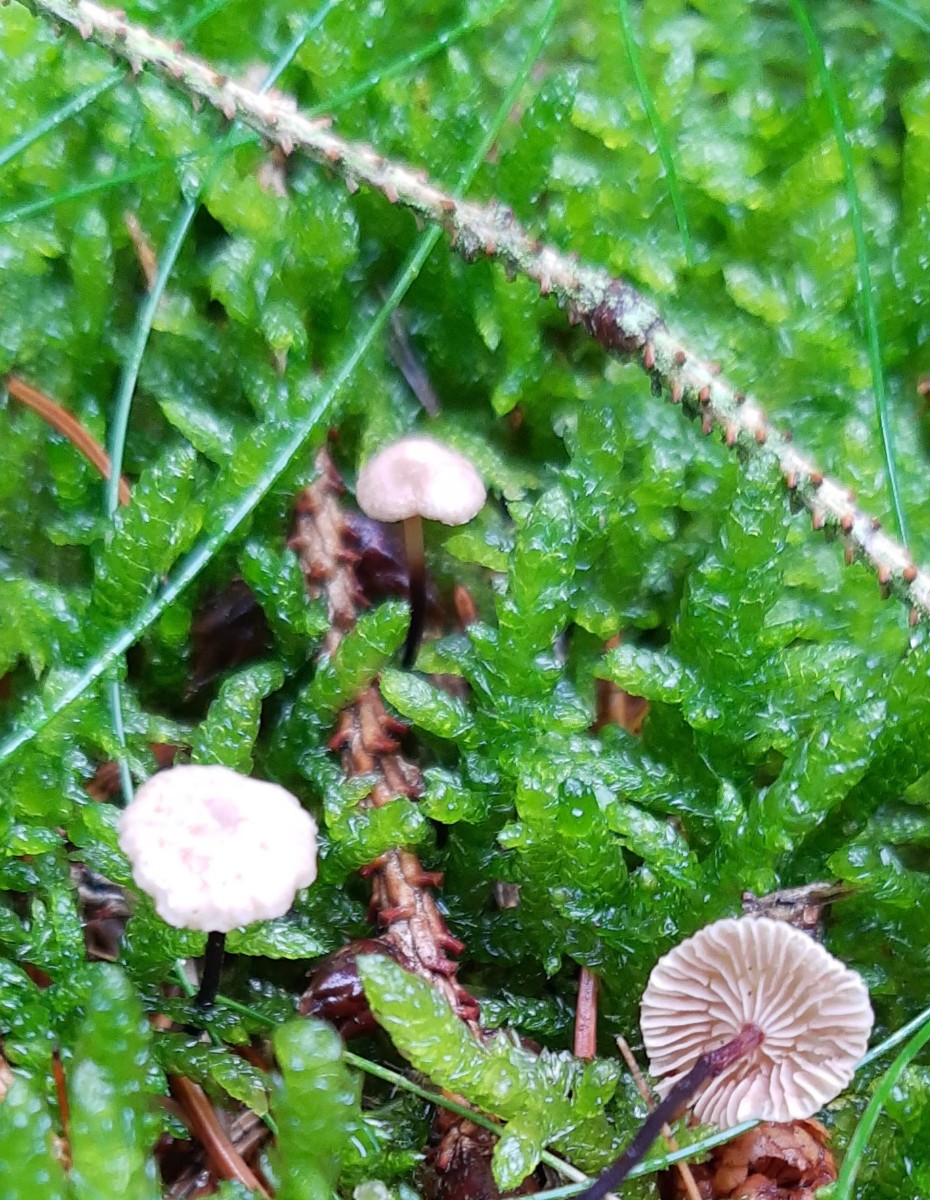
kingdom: Fungi
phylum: Basidiomycota
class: Agaricomycetes
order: Agaricales
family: Omphalotaceae
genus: Paragymnopus
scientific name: Paragymnopus perforans
